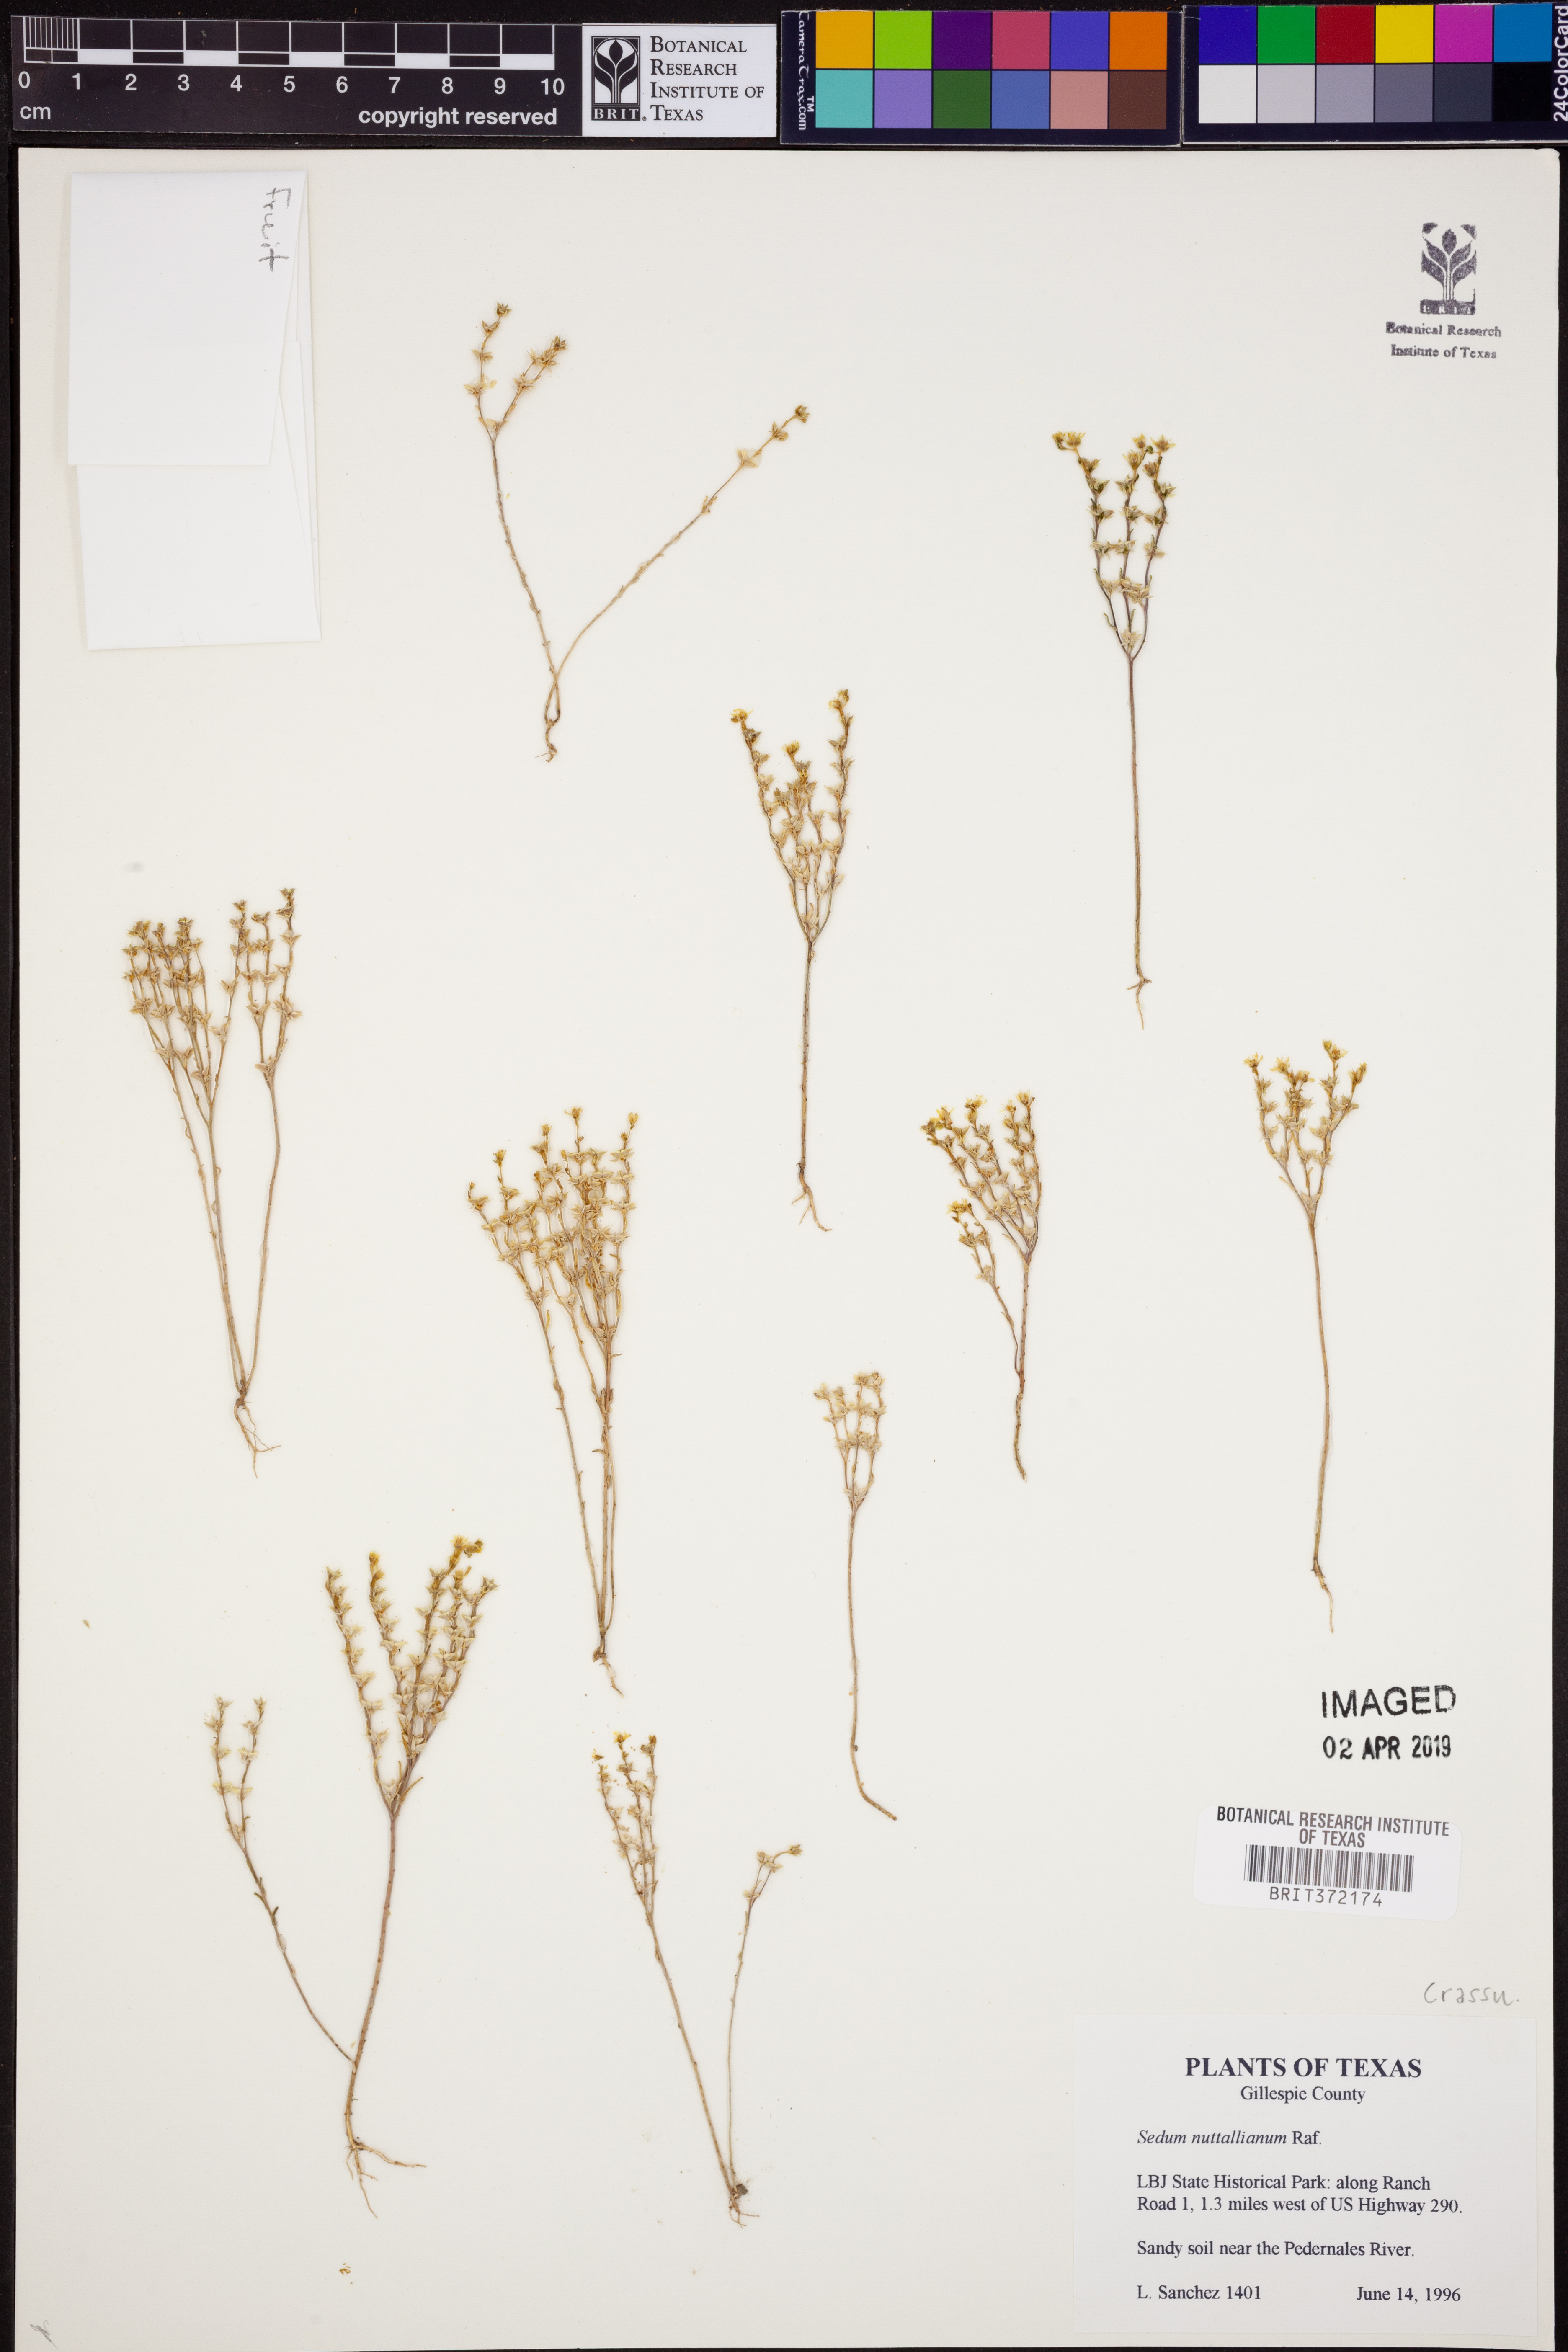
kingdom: Plantae
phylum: Tracheophyta
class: Magnoliopsida
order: Saxifragales
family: Crassulaceae
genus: Sedum
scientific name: Sedum nuttallii
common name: Yellow stonecrop
